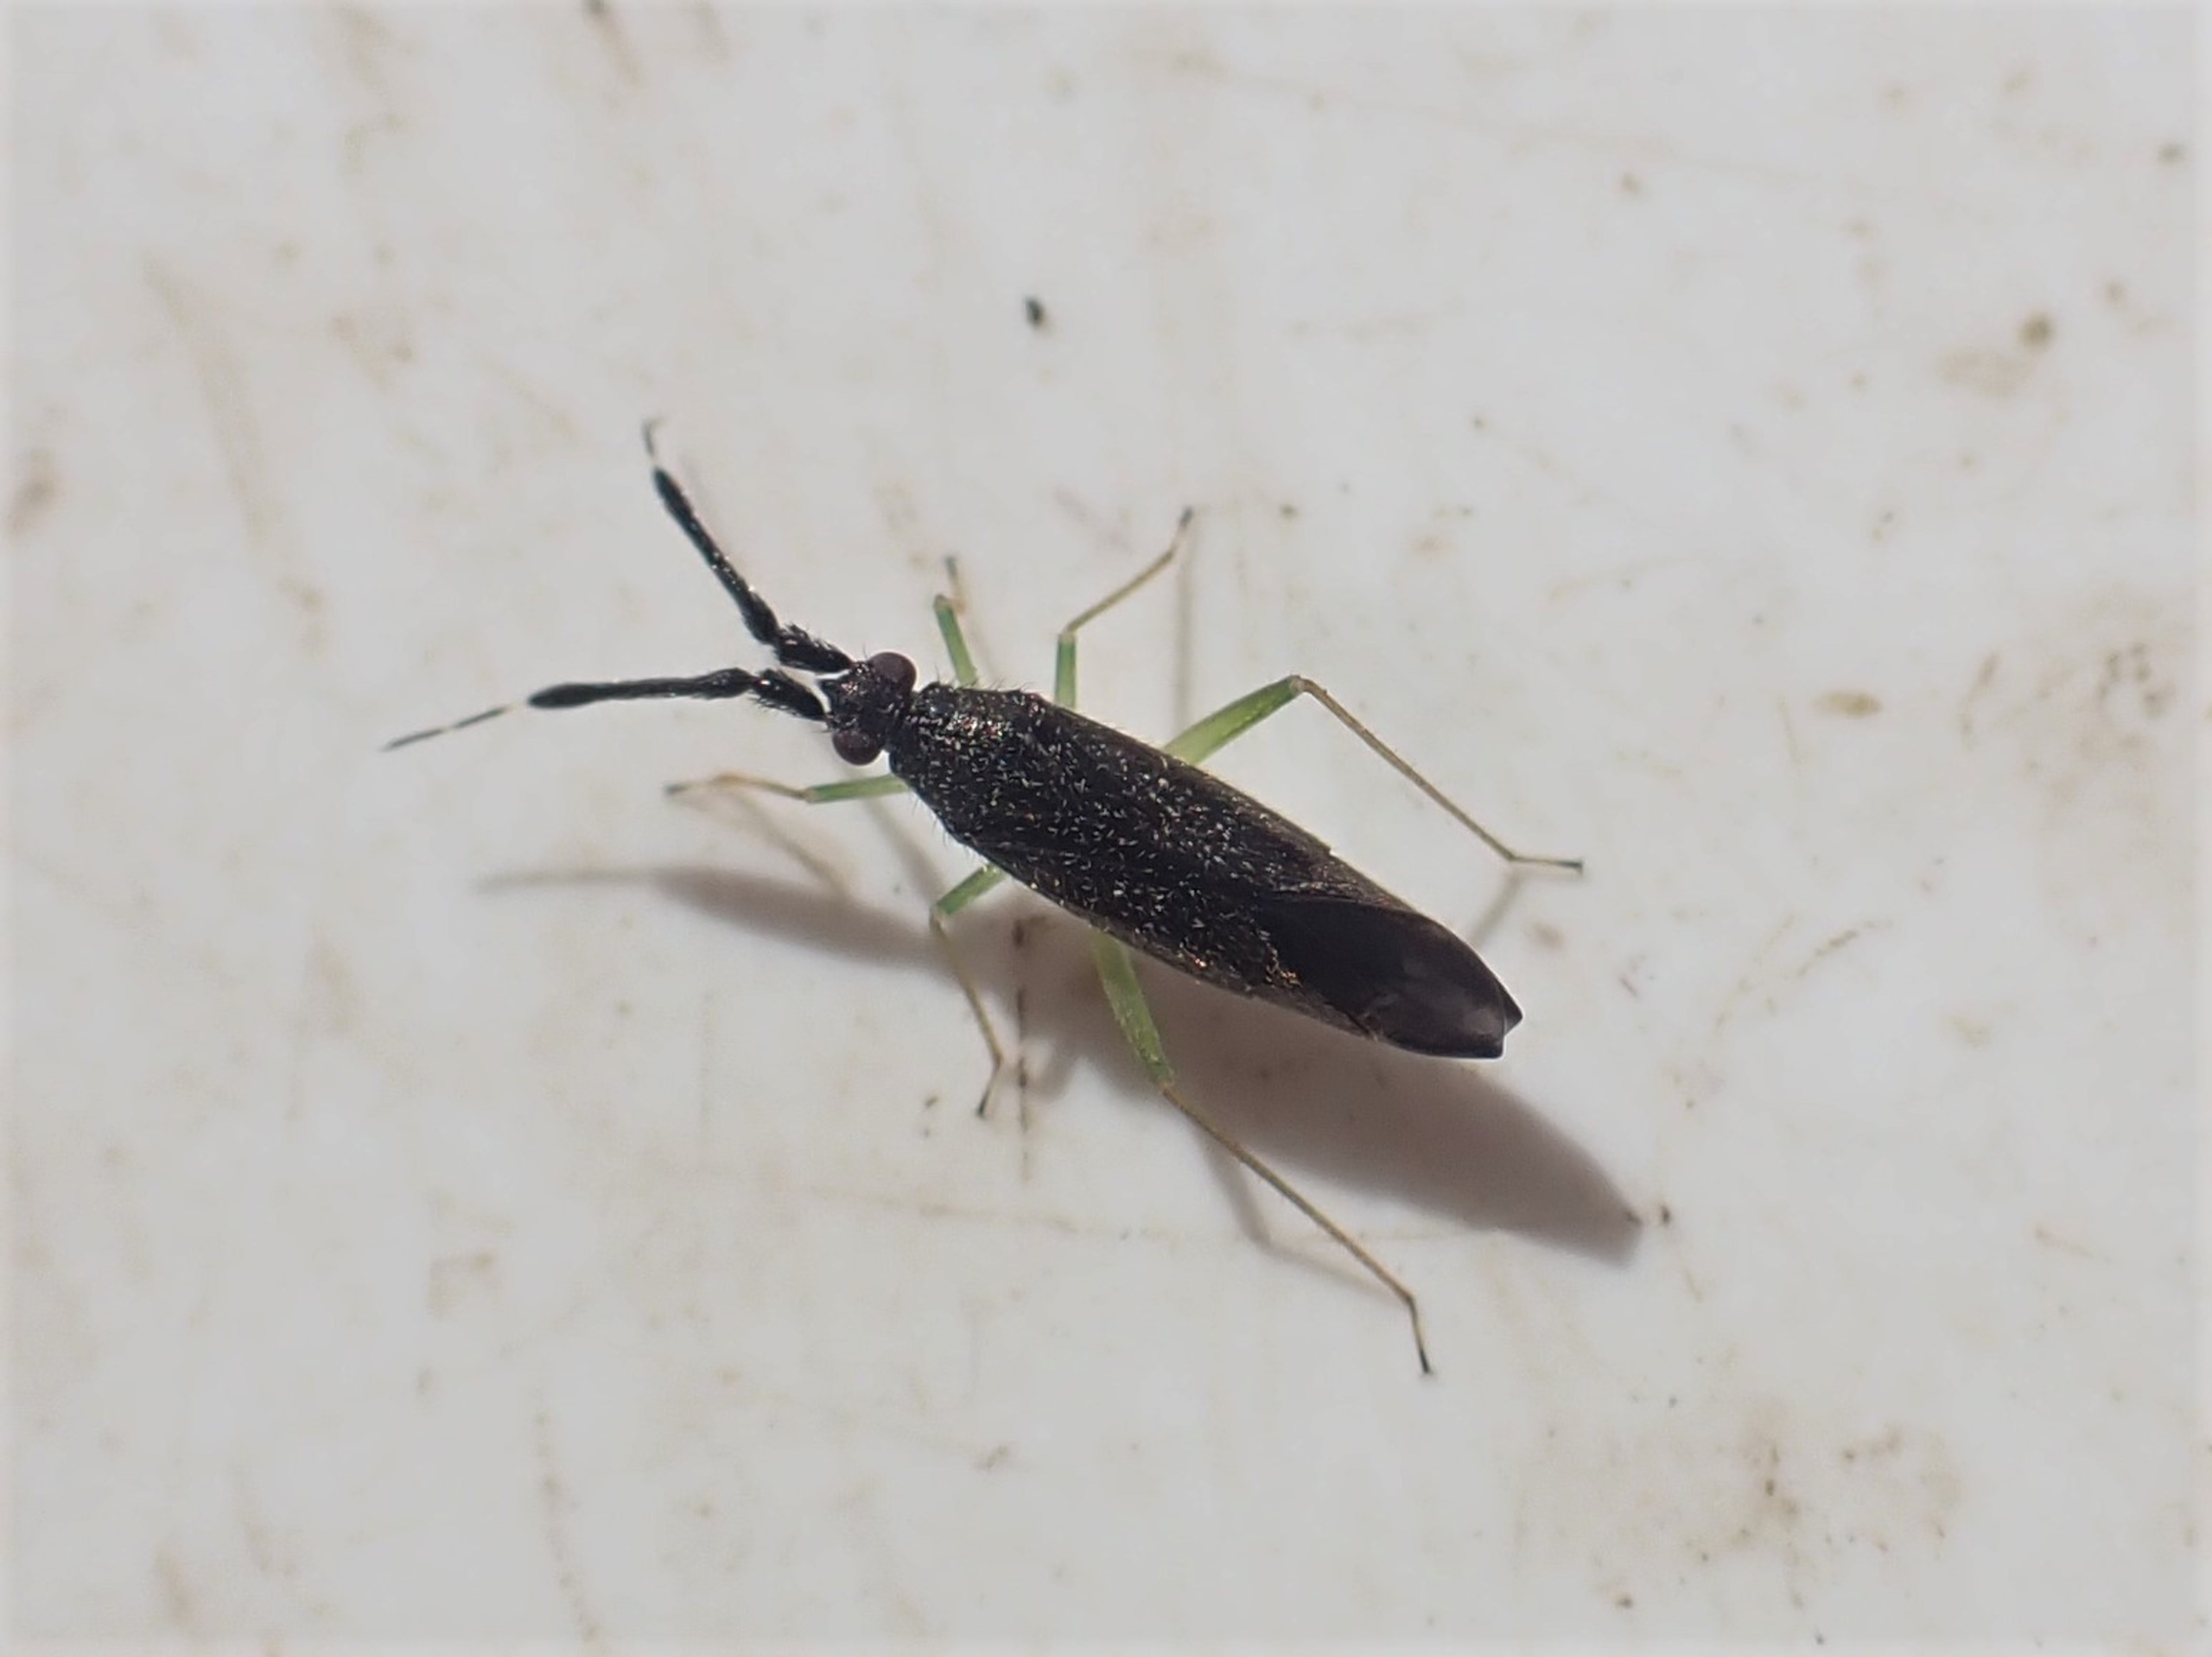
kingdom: Animalia
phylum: Arthropoda
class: Insecta
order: Hemiptera
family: Miridae
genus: Heterotoma
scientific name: Heterotoma planicornis
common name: Køllehornet blomstertæge
